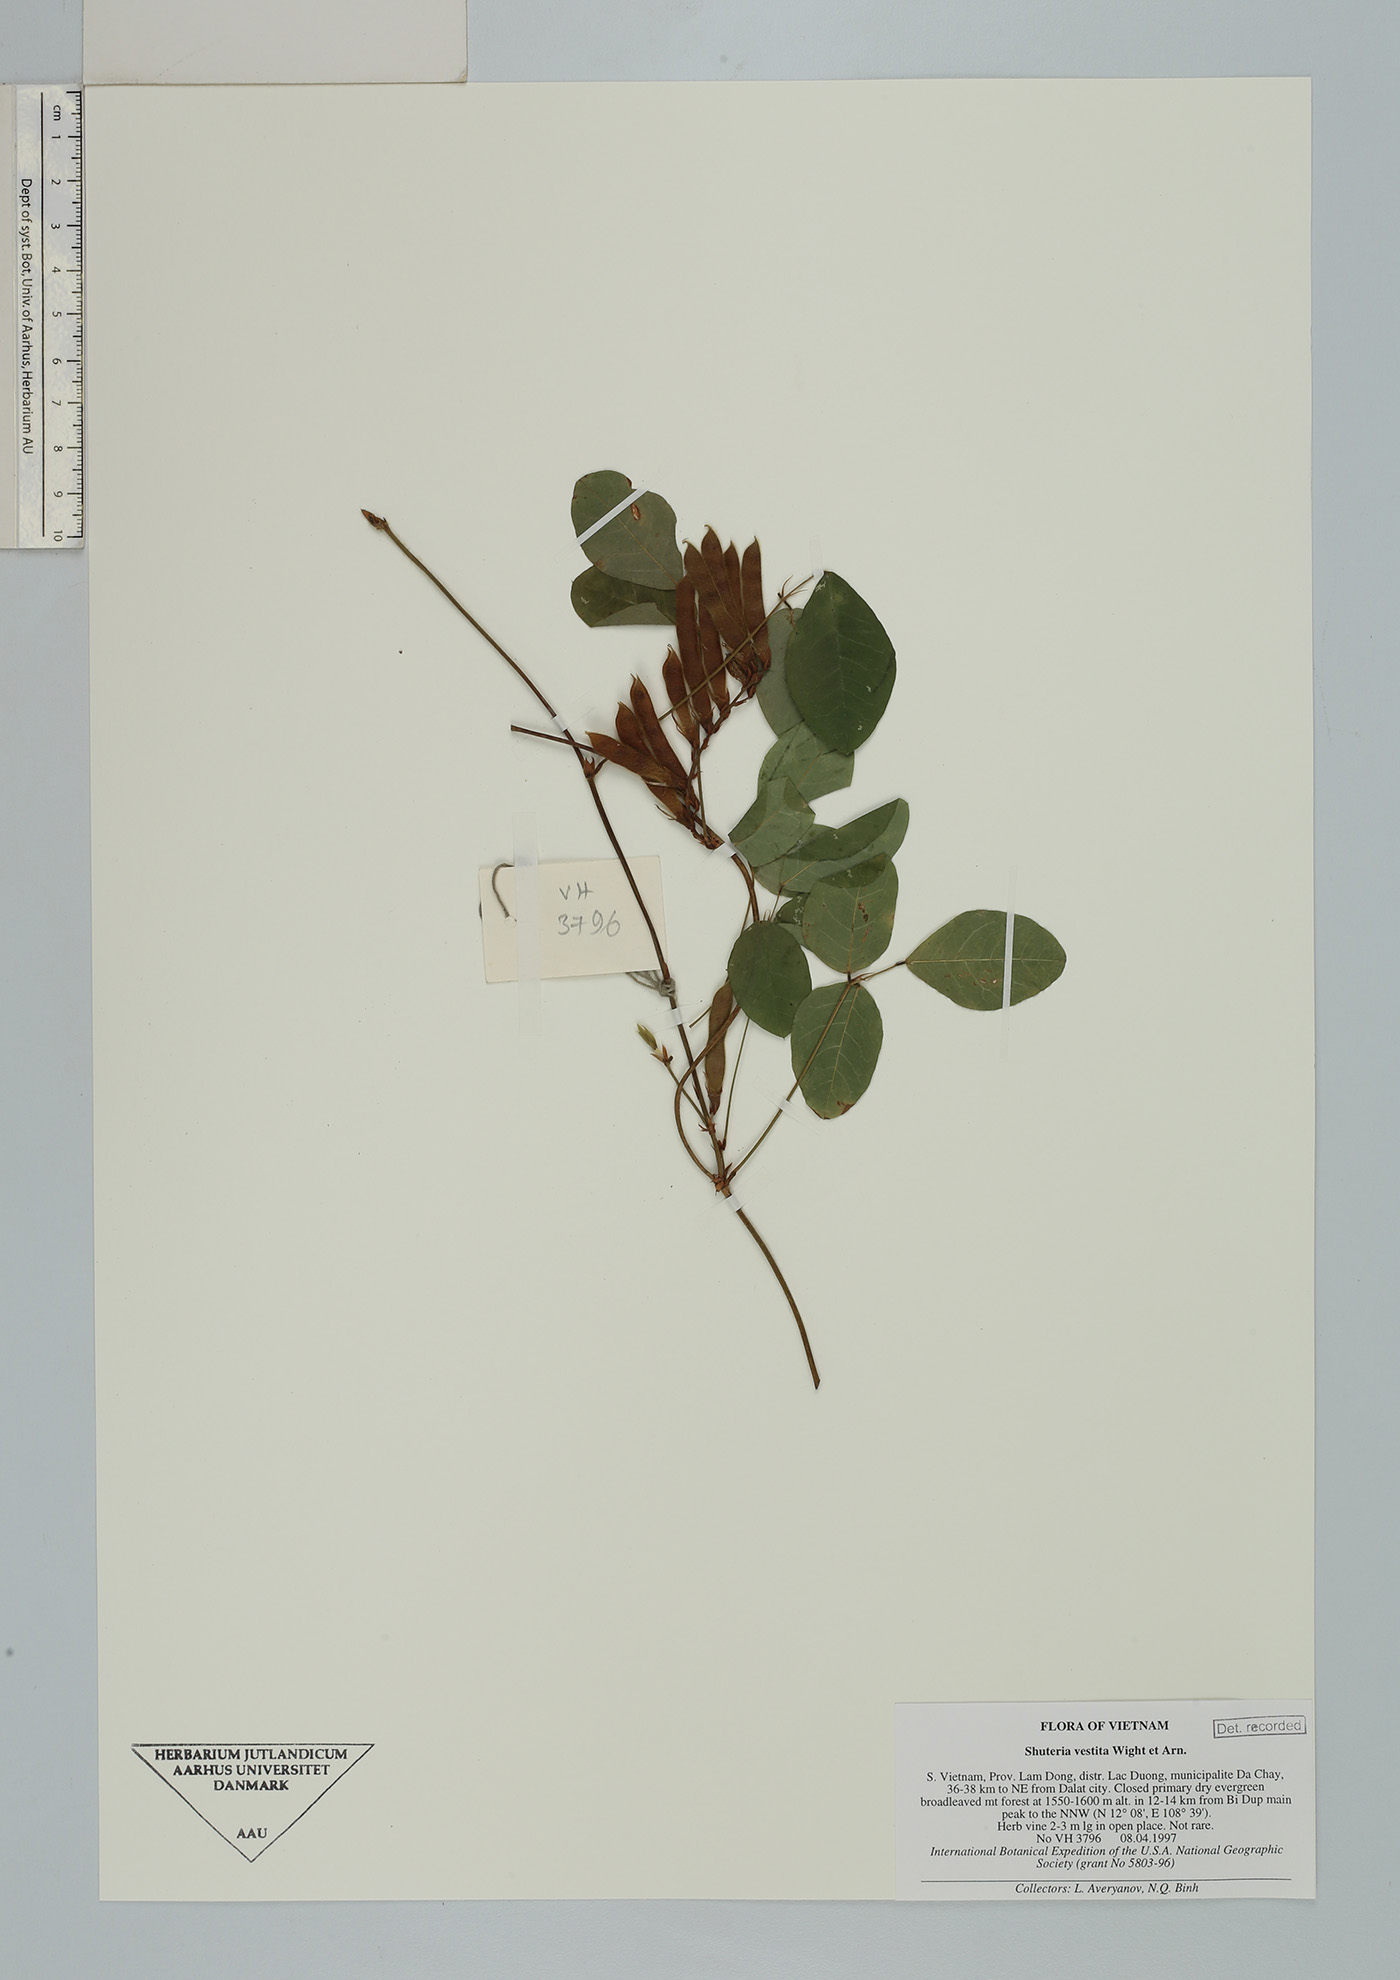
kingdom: Plantae
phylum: Tracheophyta
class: Magnoliopsida
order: Fabales
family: Fabaceae
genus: Shuteria
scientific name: Shuteria vestita
